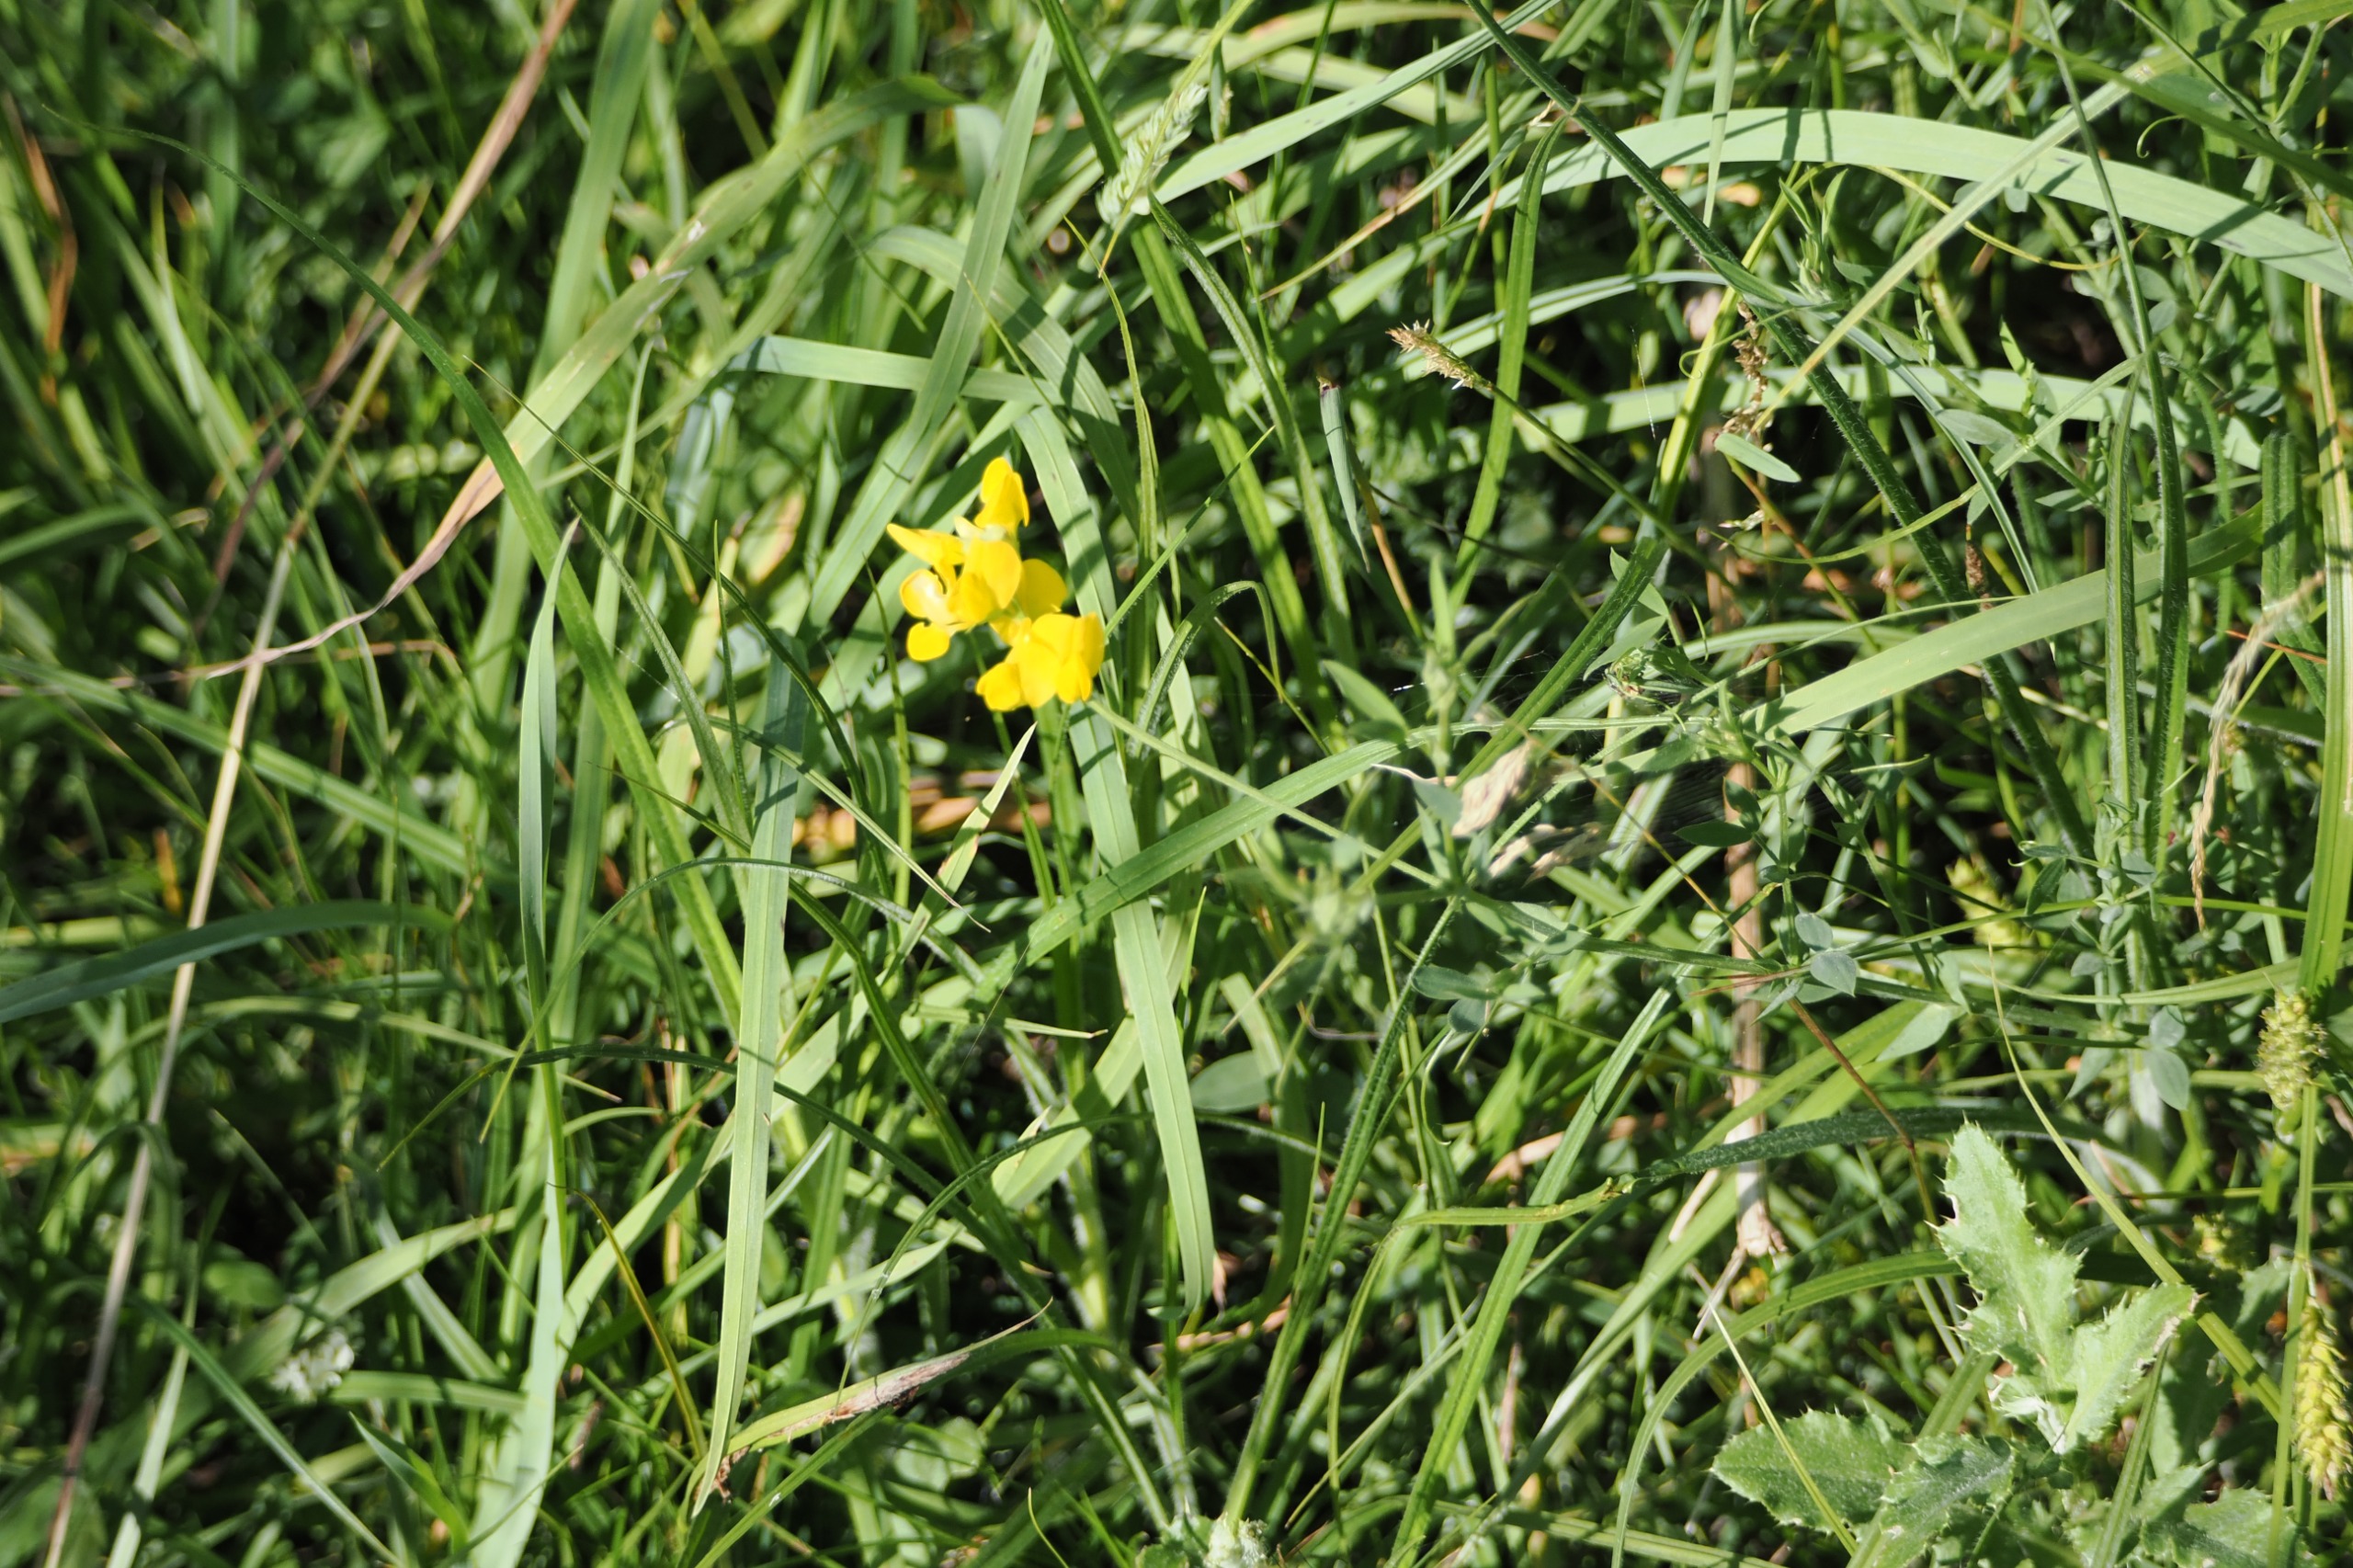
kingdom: Plantae
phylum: Tracheophyta
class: Magnoliopsida
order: Fabales
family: Fabaceae
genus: Lathyrus
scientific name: Lathyrus pratensis
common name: Gul fladbælg
